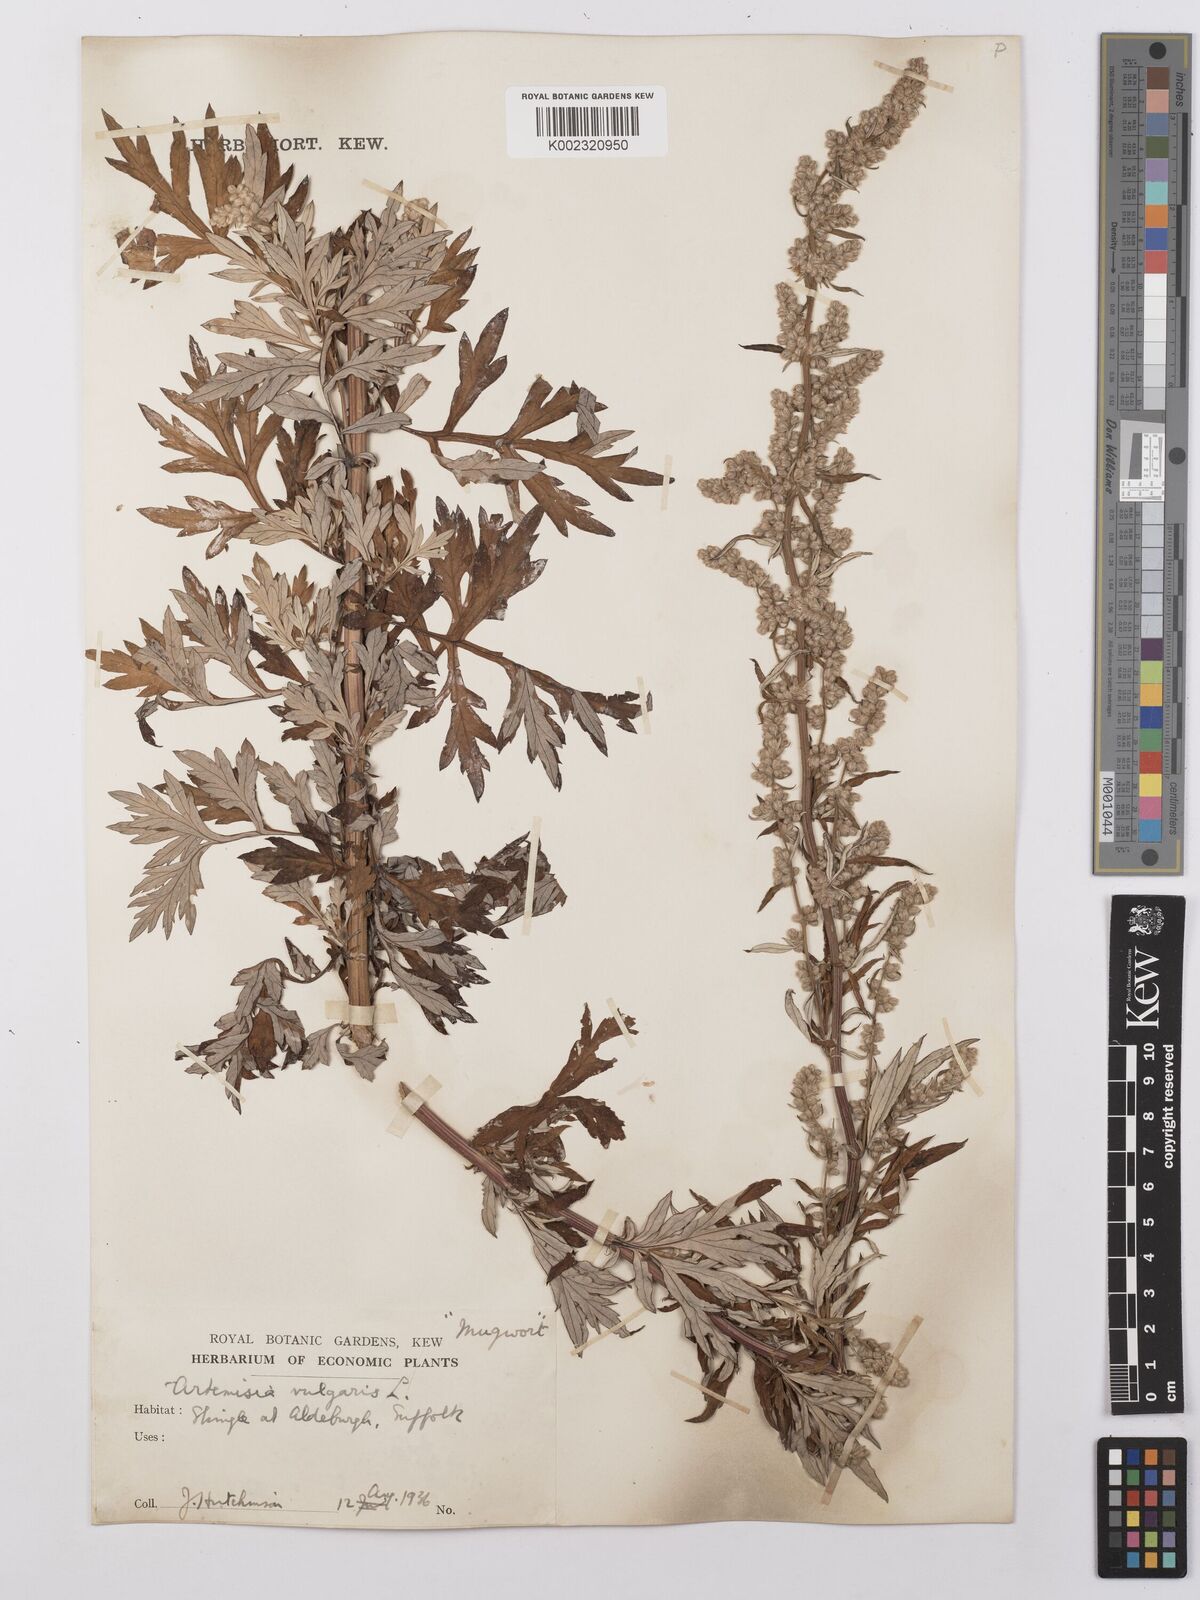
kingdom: Plantae
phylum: Tracheophyta
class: Magnoliopsida
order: Asterales
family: Asteraceae
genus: Artemisia
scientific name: Artemisia vulgaris
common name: Mugwort
